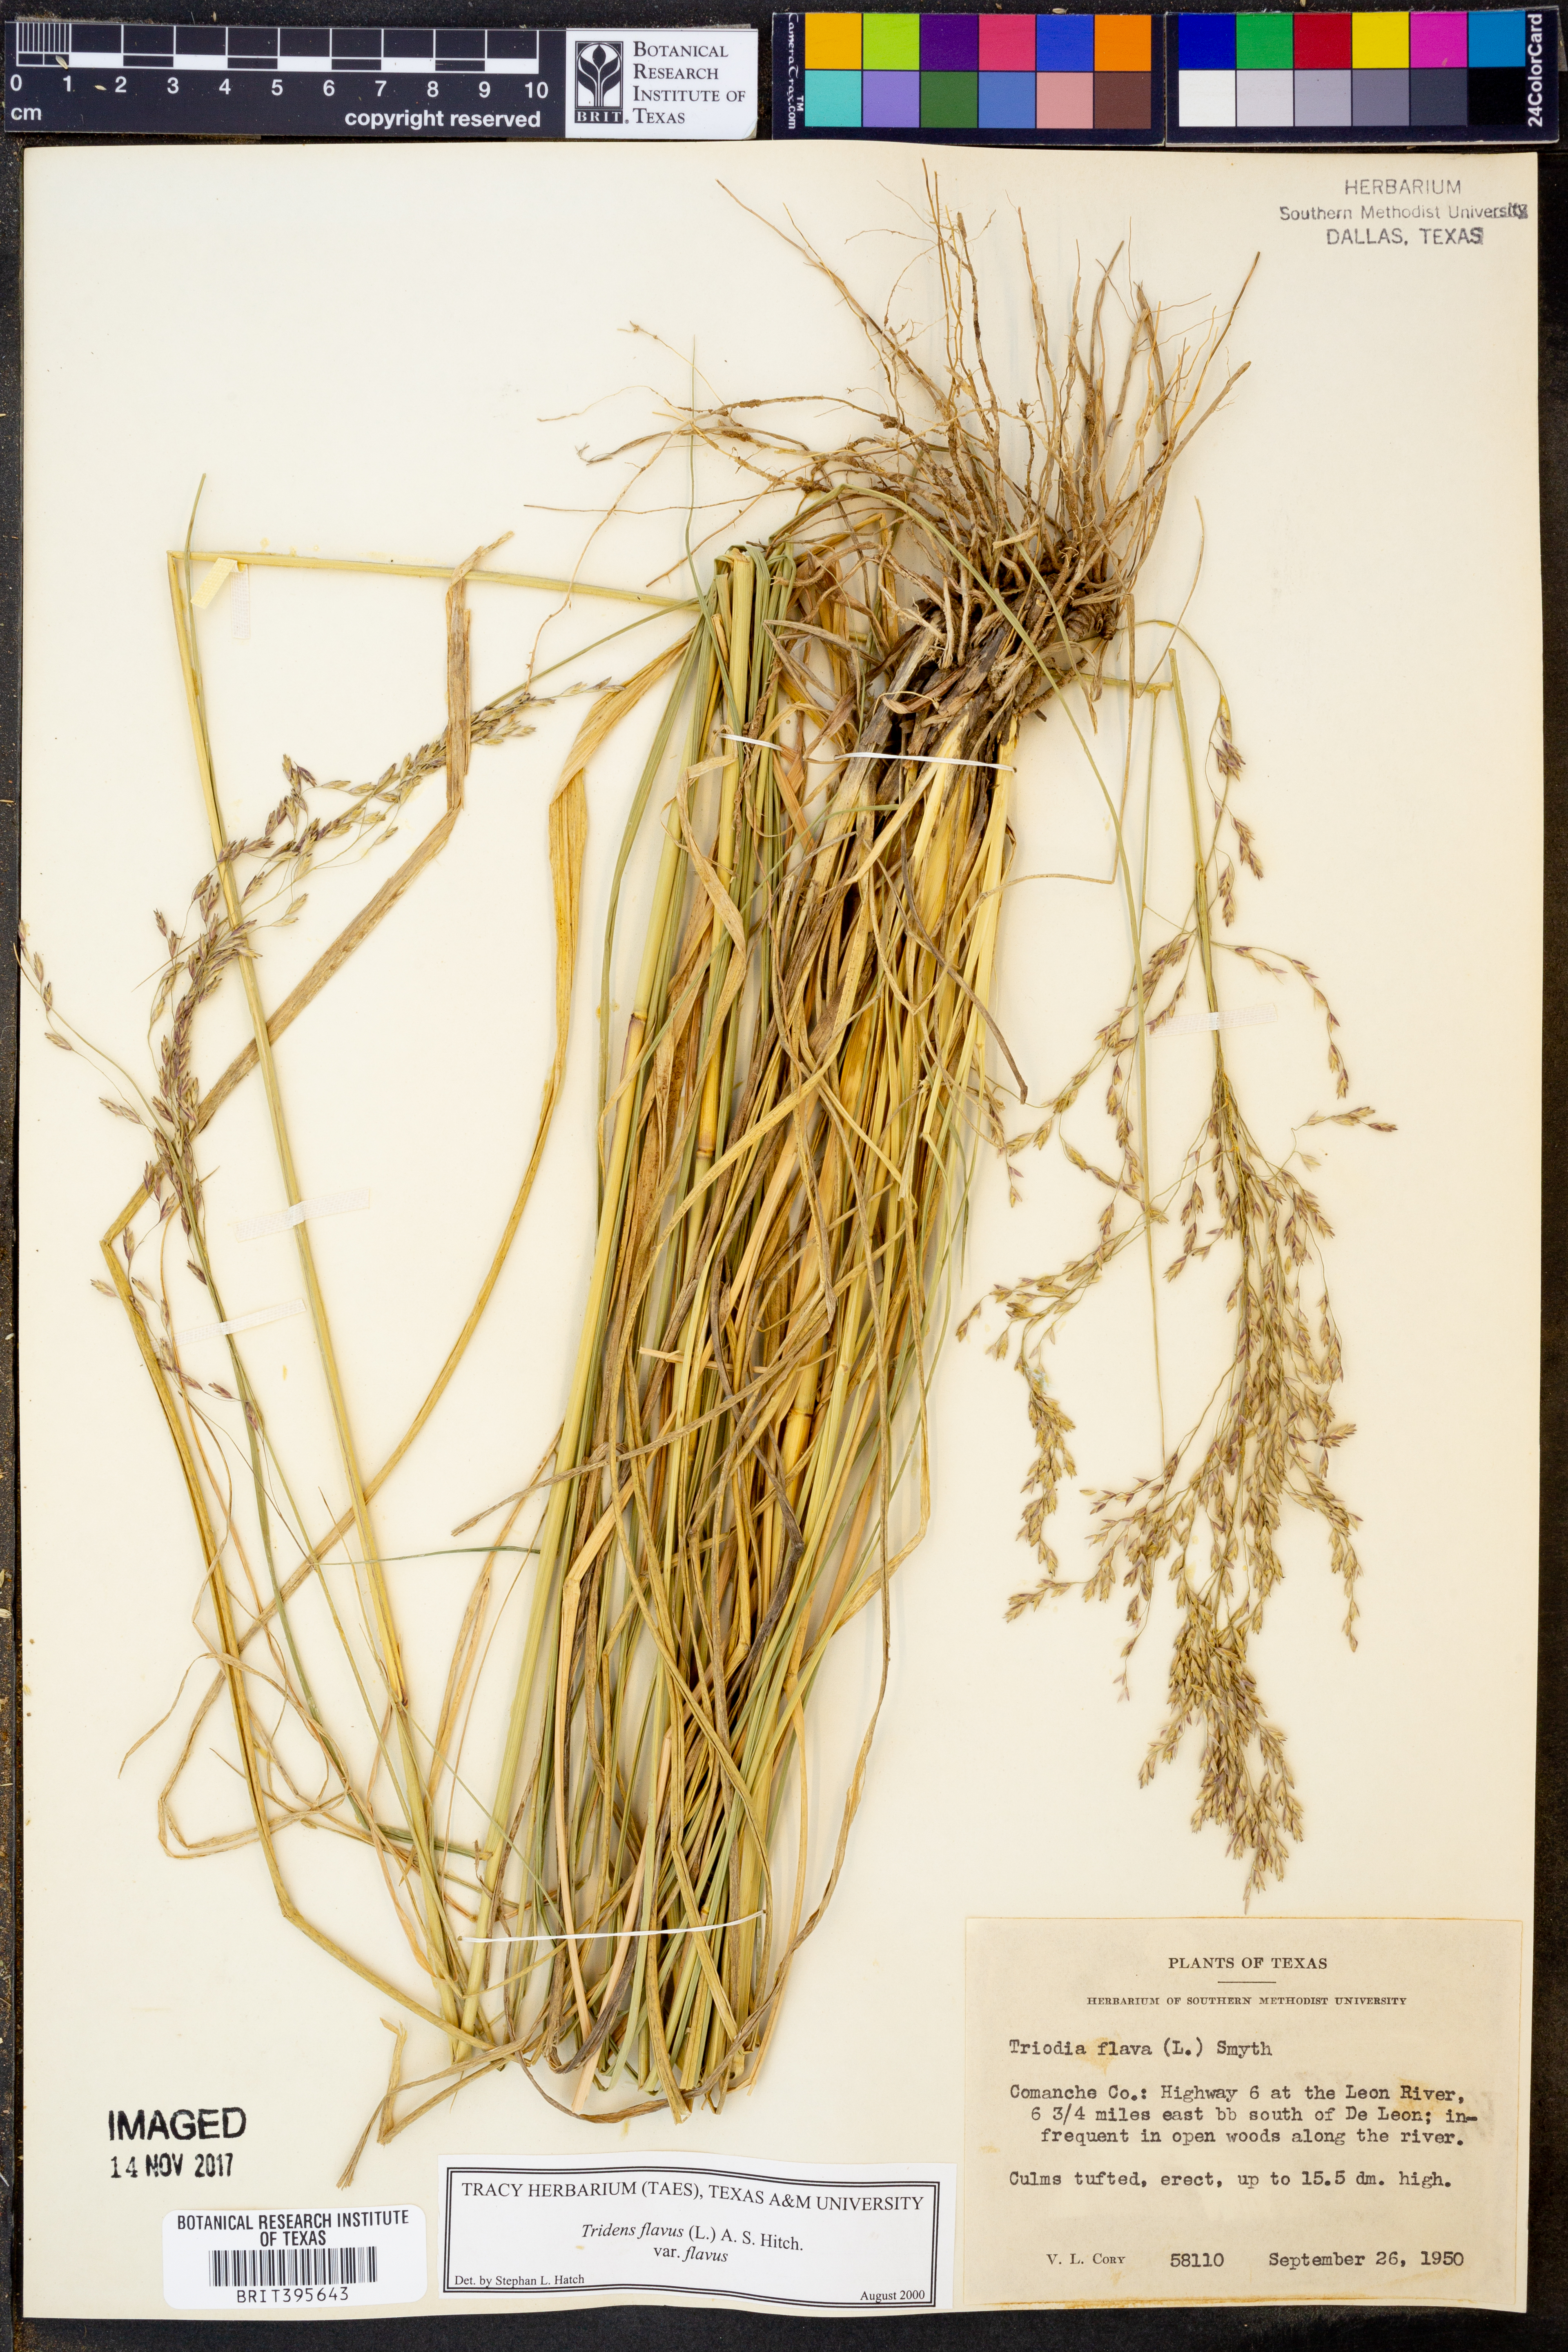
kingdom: Plantae
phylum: Tracheophyta
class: Liliopsida
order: Poales
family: Poaceae
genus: Tridens
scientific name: Tridens flavus
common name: Purpletop
